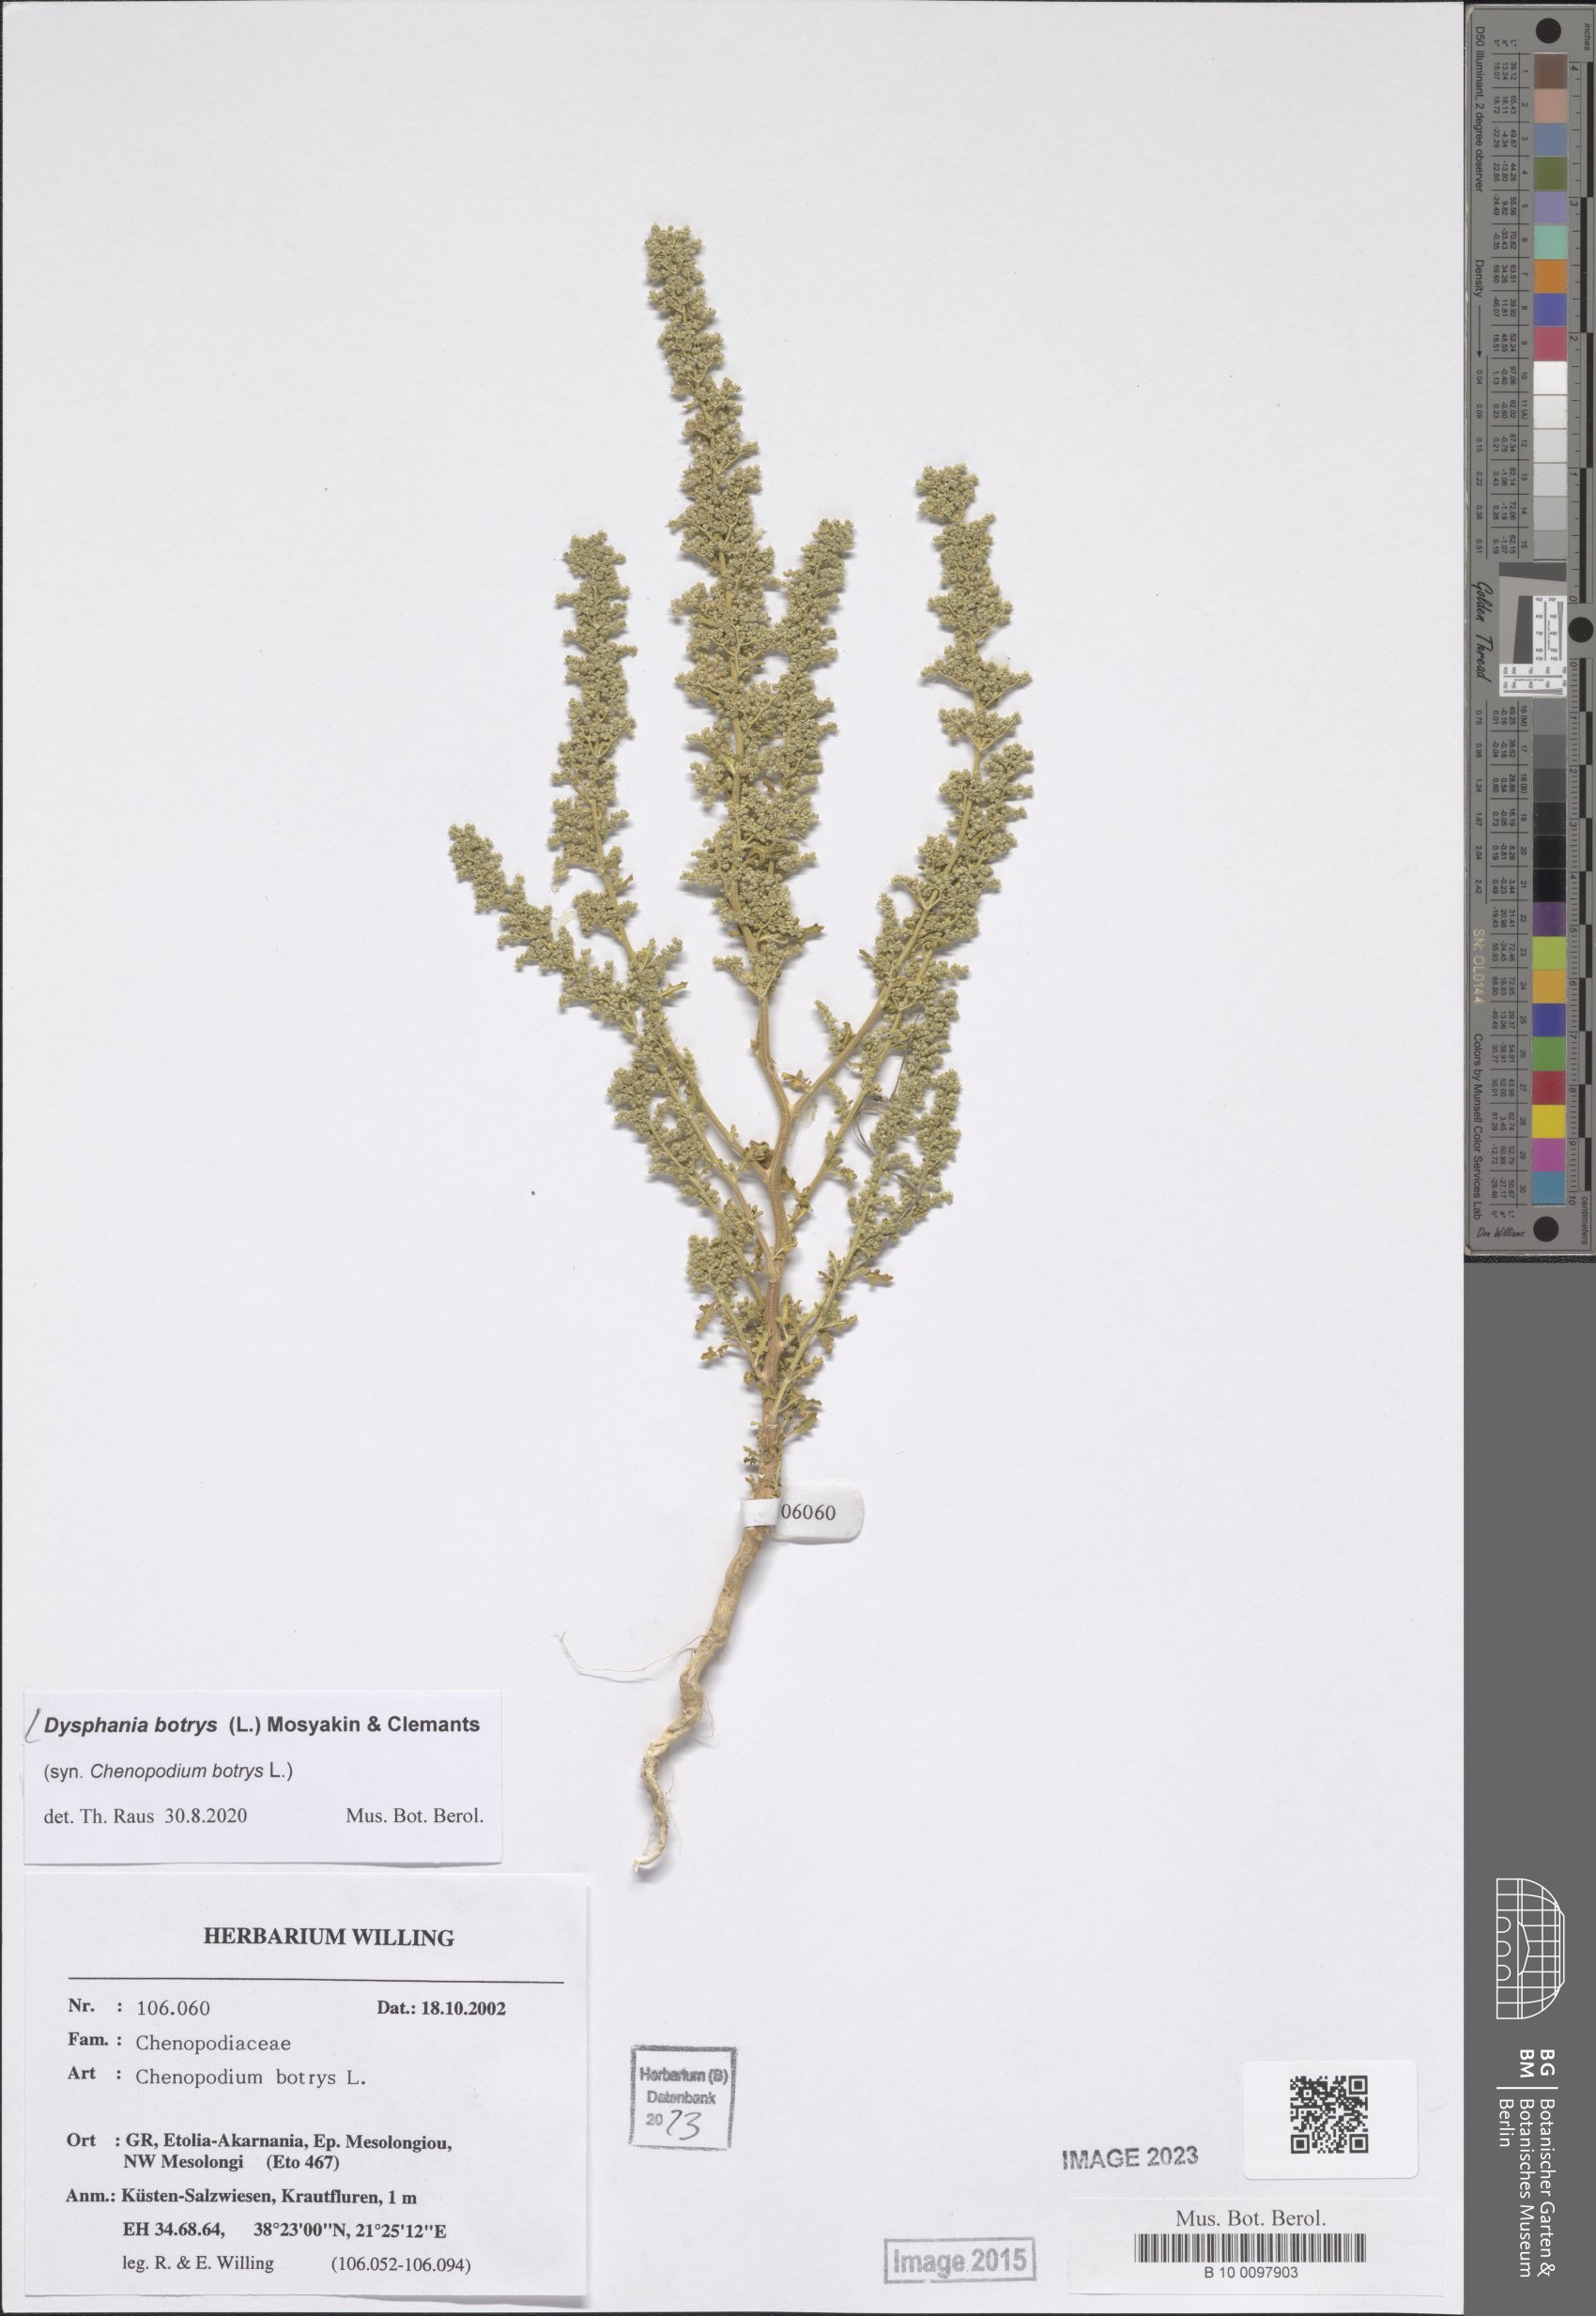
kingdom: Plantae
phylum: Tracheophyta
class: Magnoliopsida
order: Caryophyllales
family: Amaranthaceae
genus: Dysphania
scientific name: Dysphania botrys
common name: Feather-geranium
